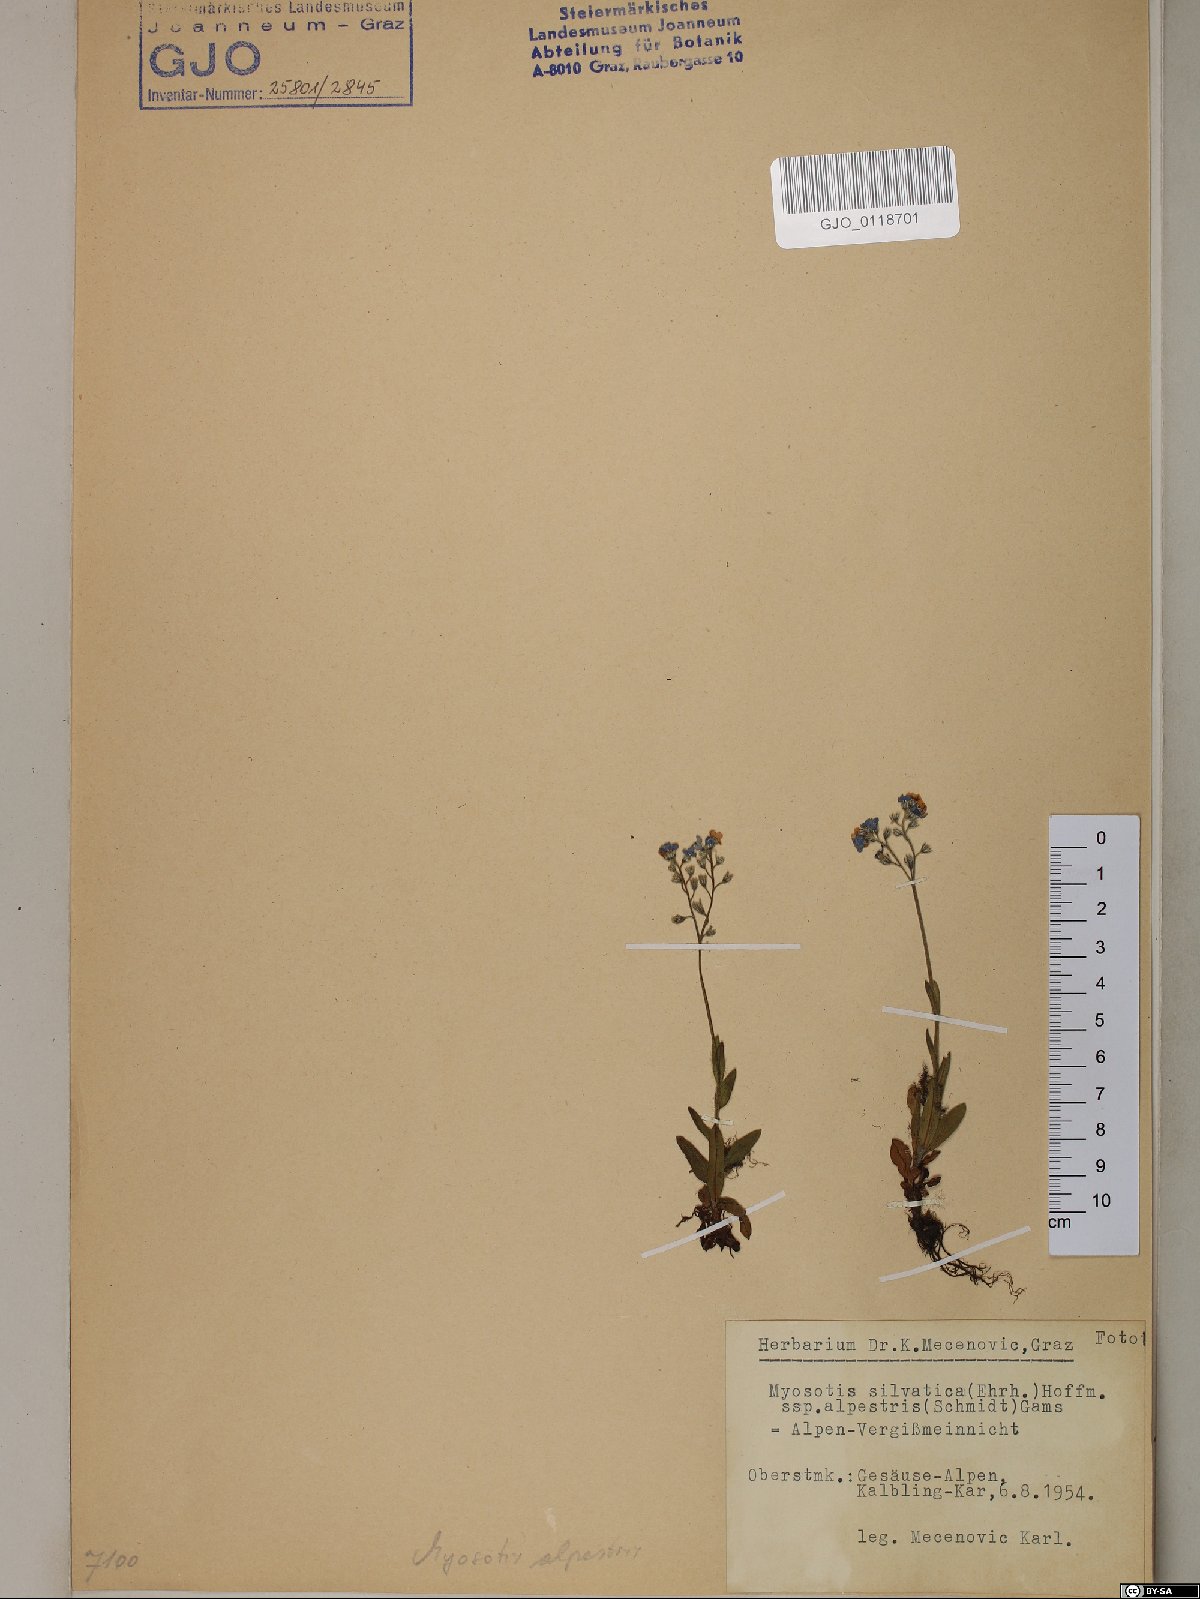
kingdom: Plantae
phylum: Tracheophyta
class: Magnoliopsida
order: Boraginales
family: Boraginaceae
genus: Myosotis
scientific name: Myosotis alpestris
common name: Alpine forget-me-not
